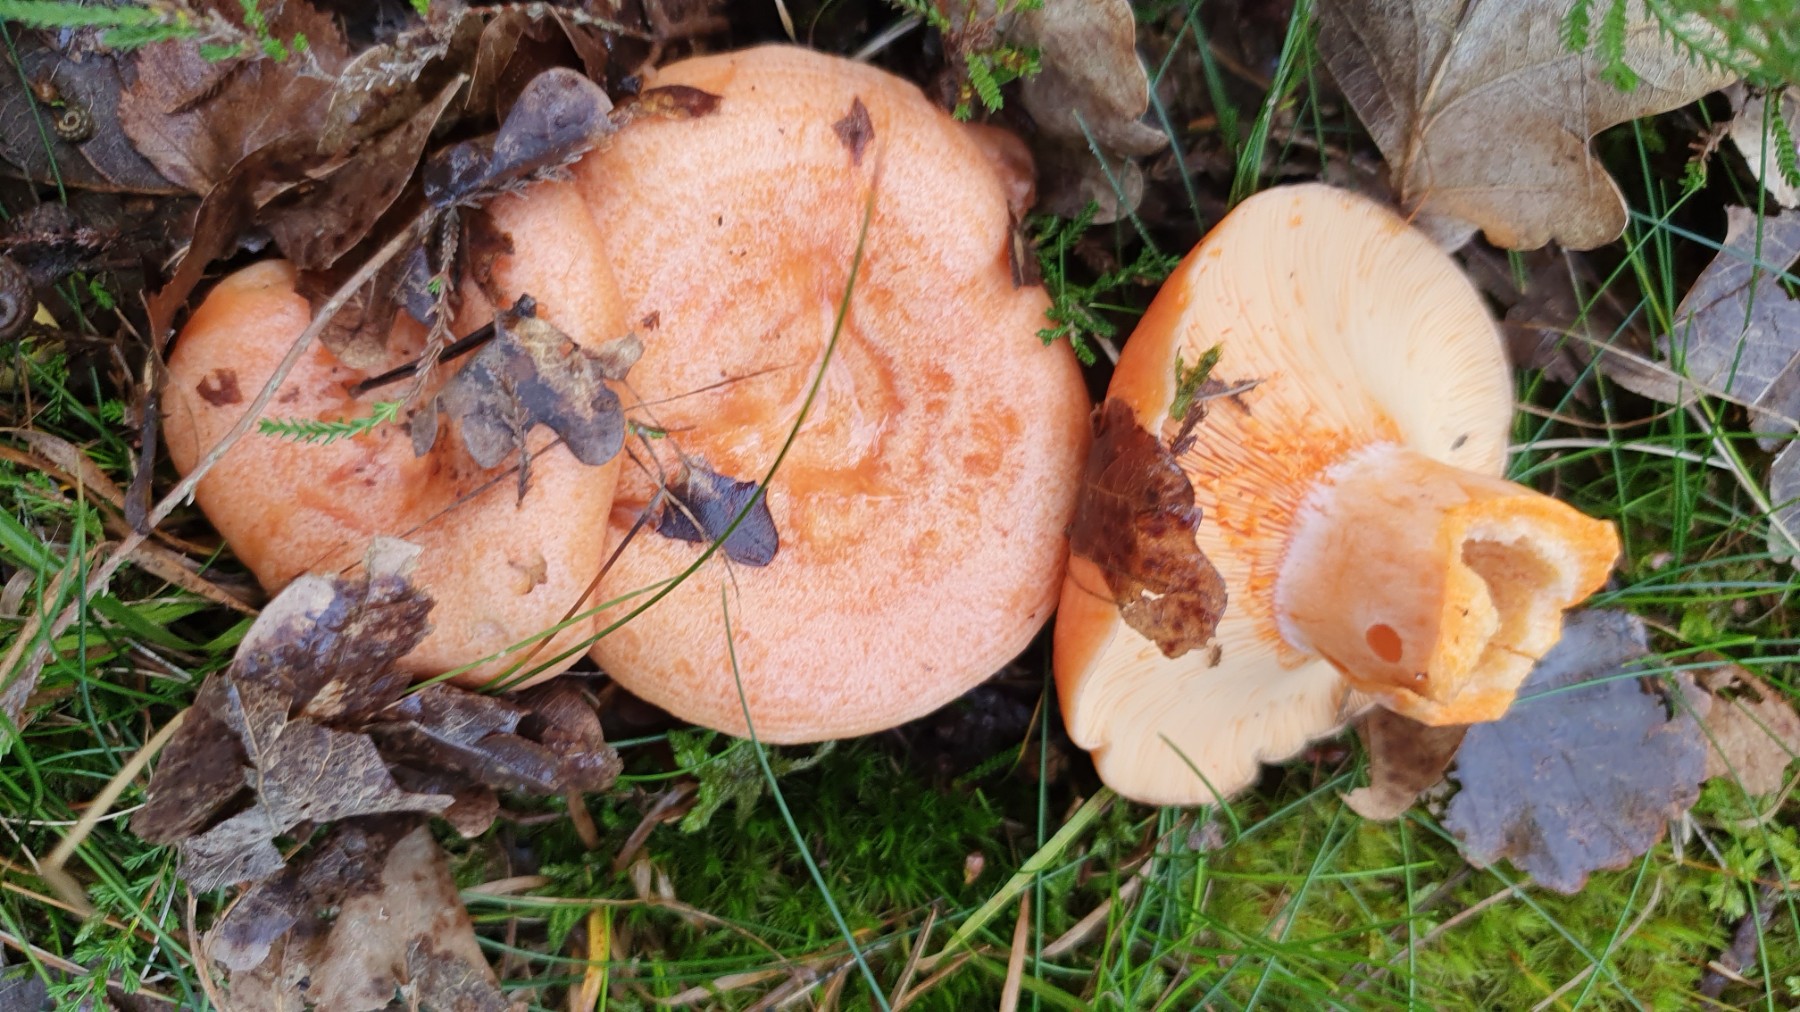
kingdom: Fungi
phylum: Basidiomycota
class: Agaricomycetes
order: Russulales
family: Russulaceae
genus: Lactarius
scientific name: Lactarius deliciosus
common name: velsmagende mælkehat
